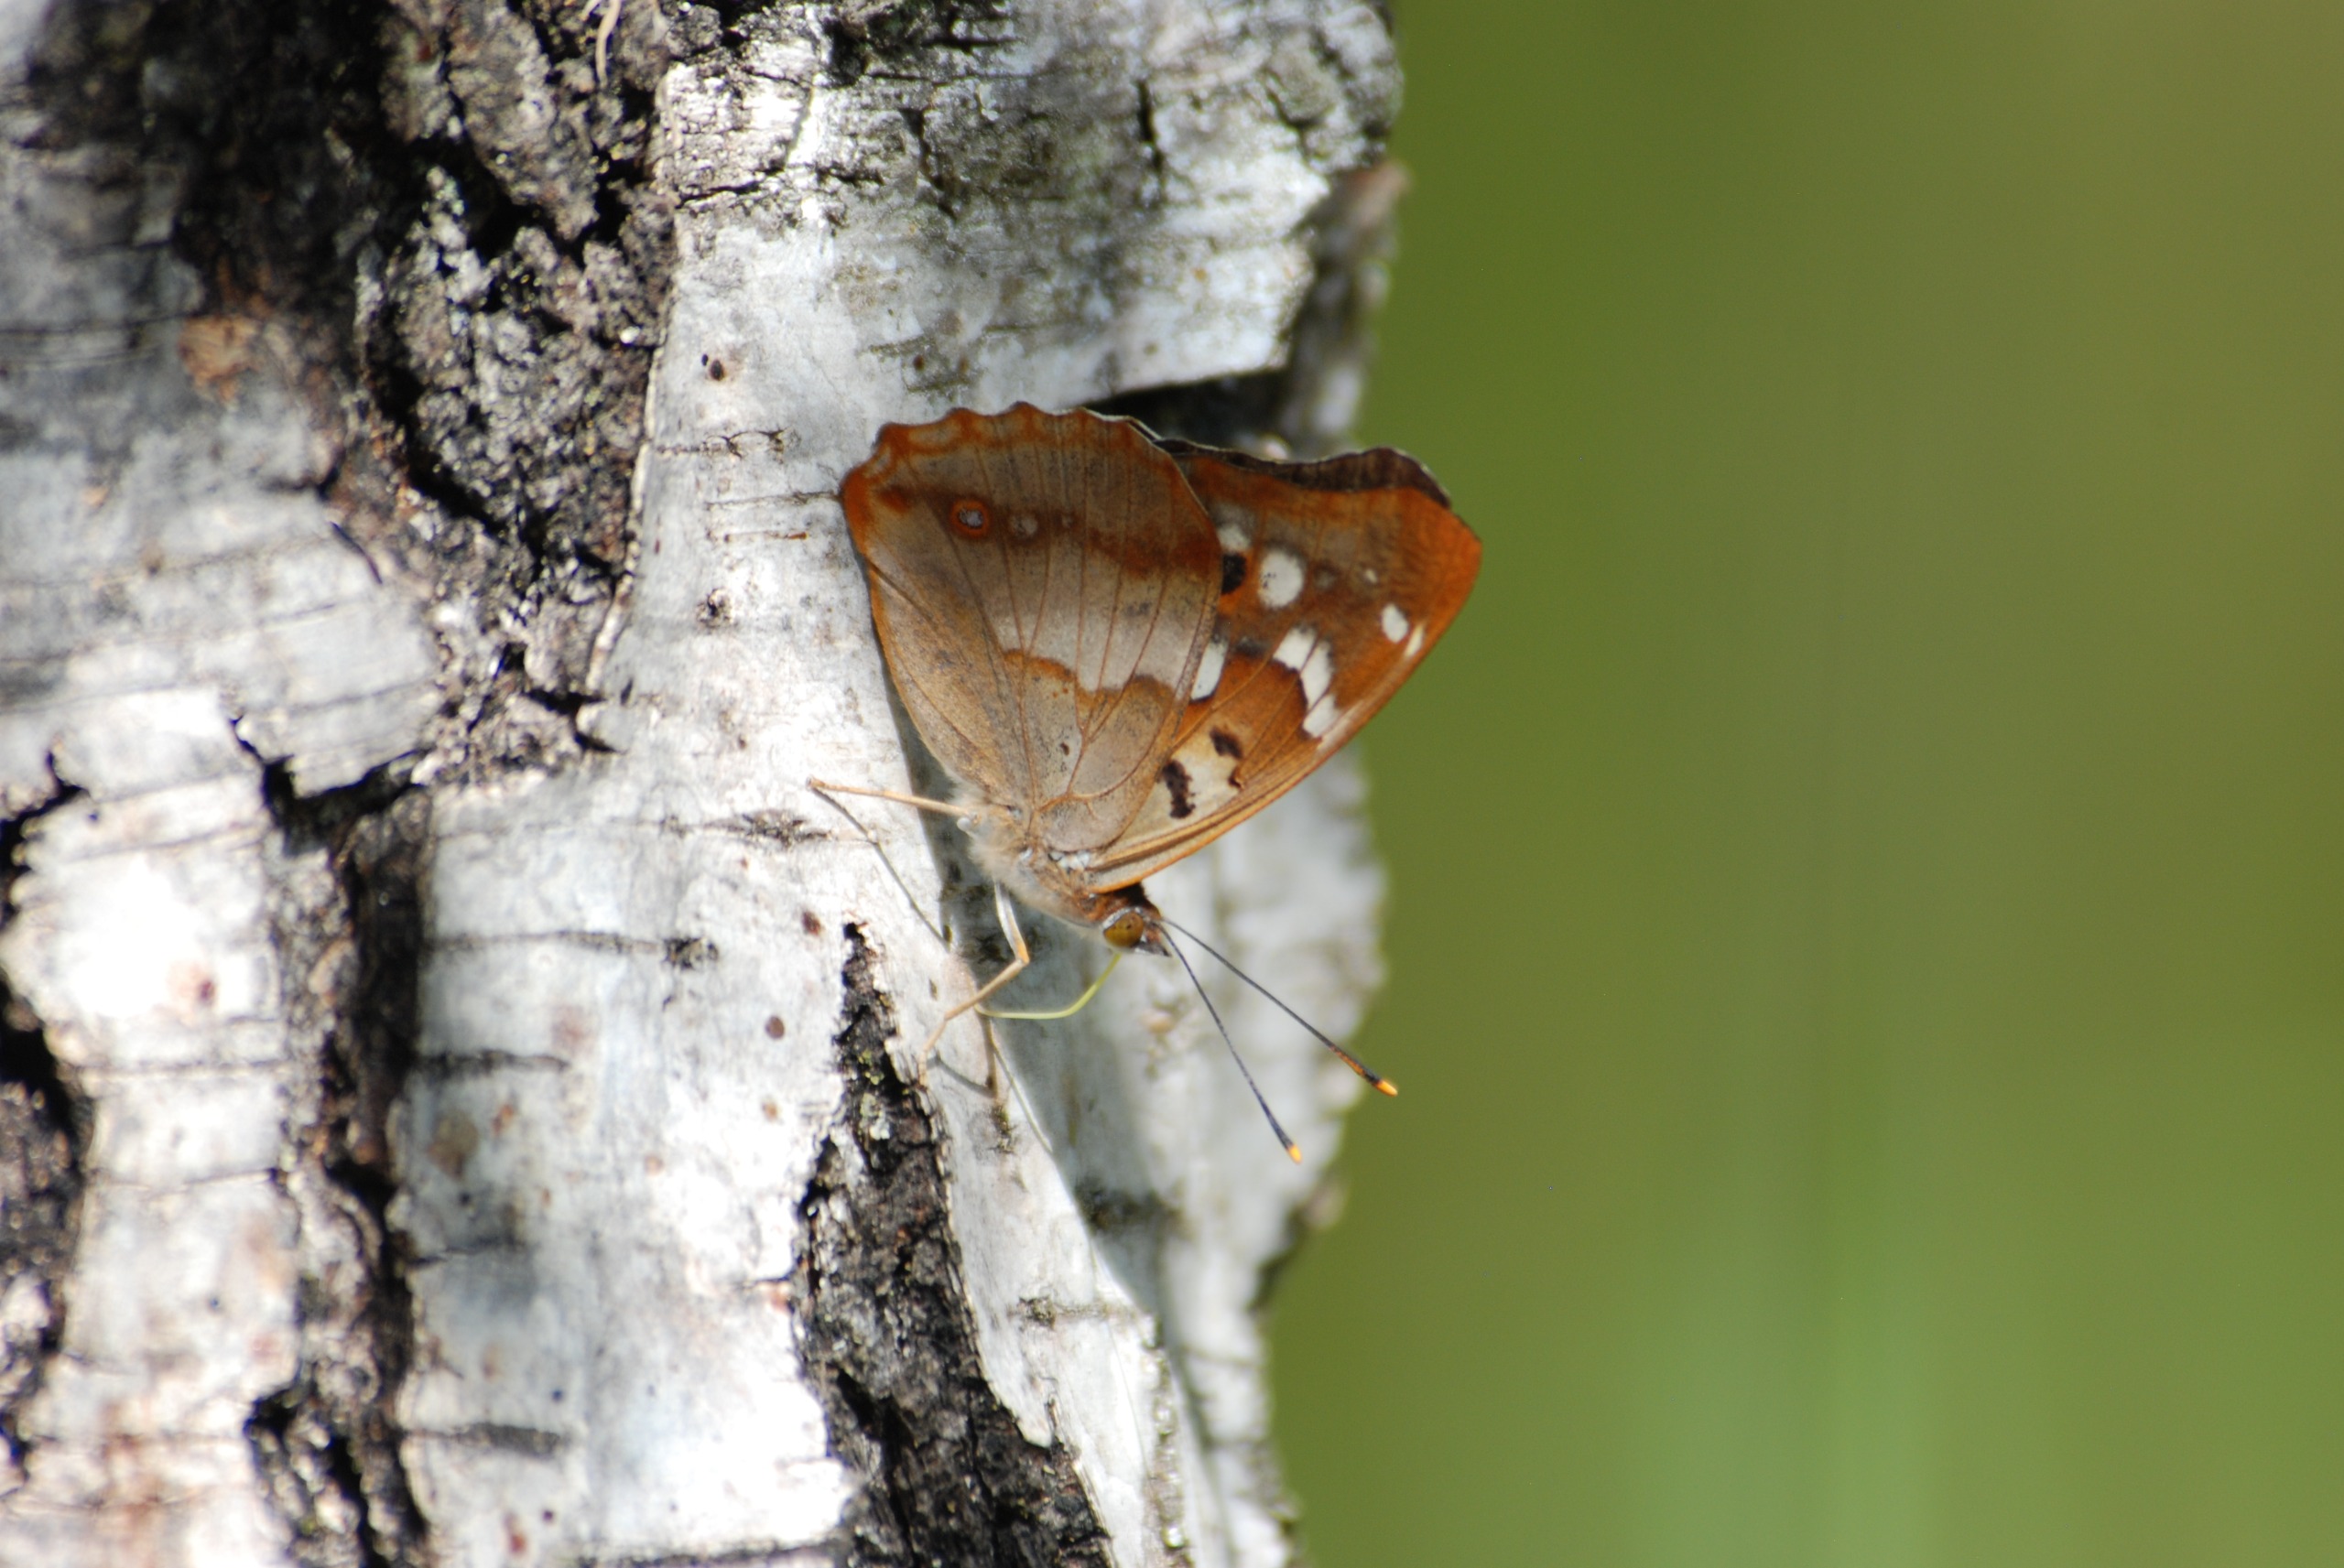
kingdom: Animalia
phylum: Arthropoda
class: Insecta
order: Lepidoptera
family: Nymphalidae
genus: Apatura
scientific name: Apatura ilia
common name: Ilia
